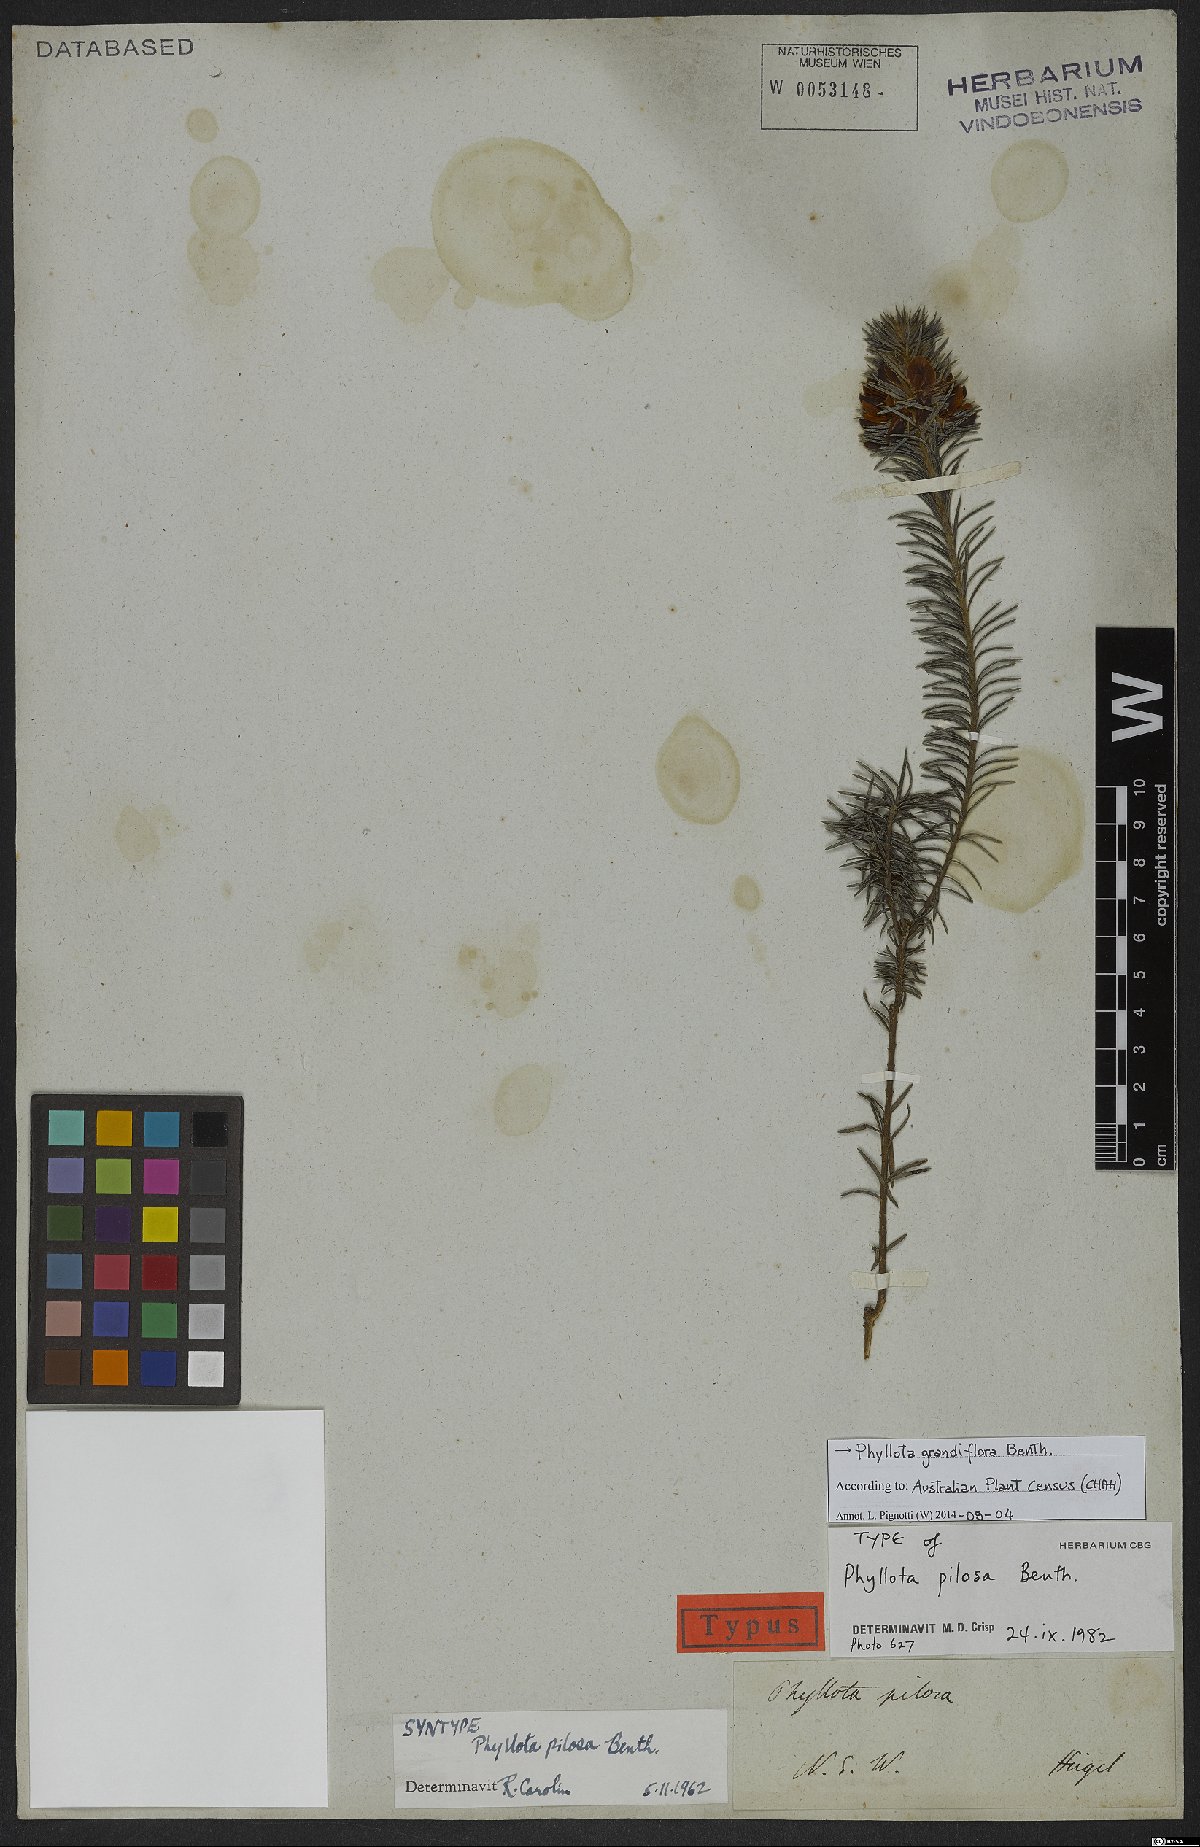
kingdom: Plantae
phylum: Tracheophyta
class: Magnoliopsida
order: Fabales
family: Fabaceae
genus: Phyllota
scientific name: Phyllota grandiflora
